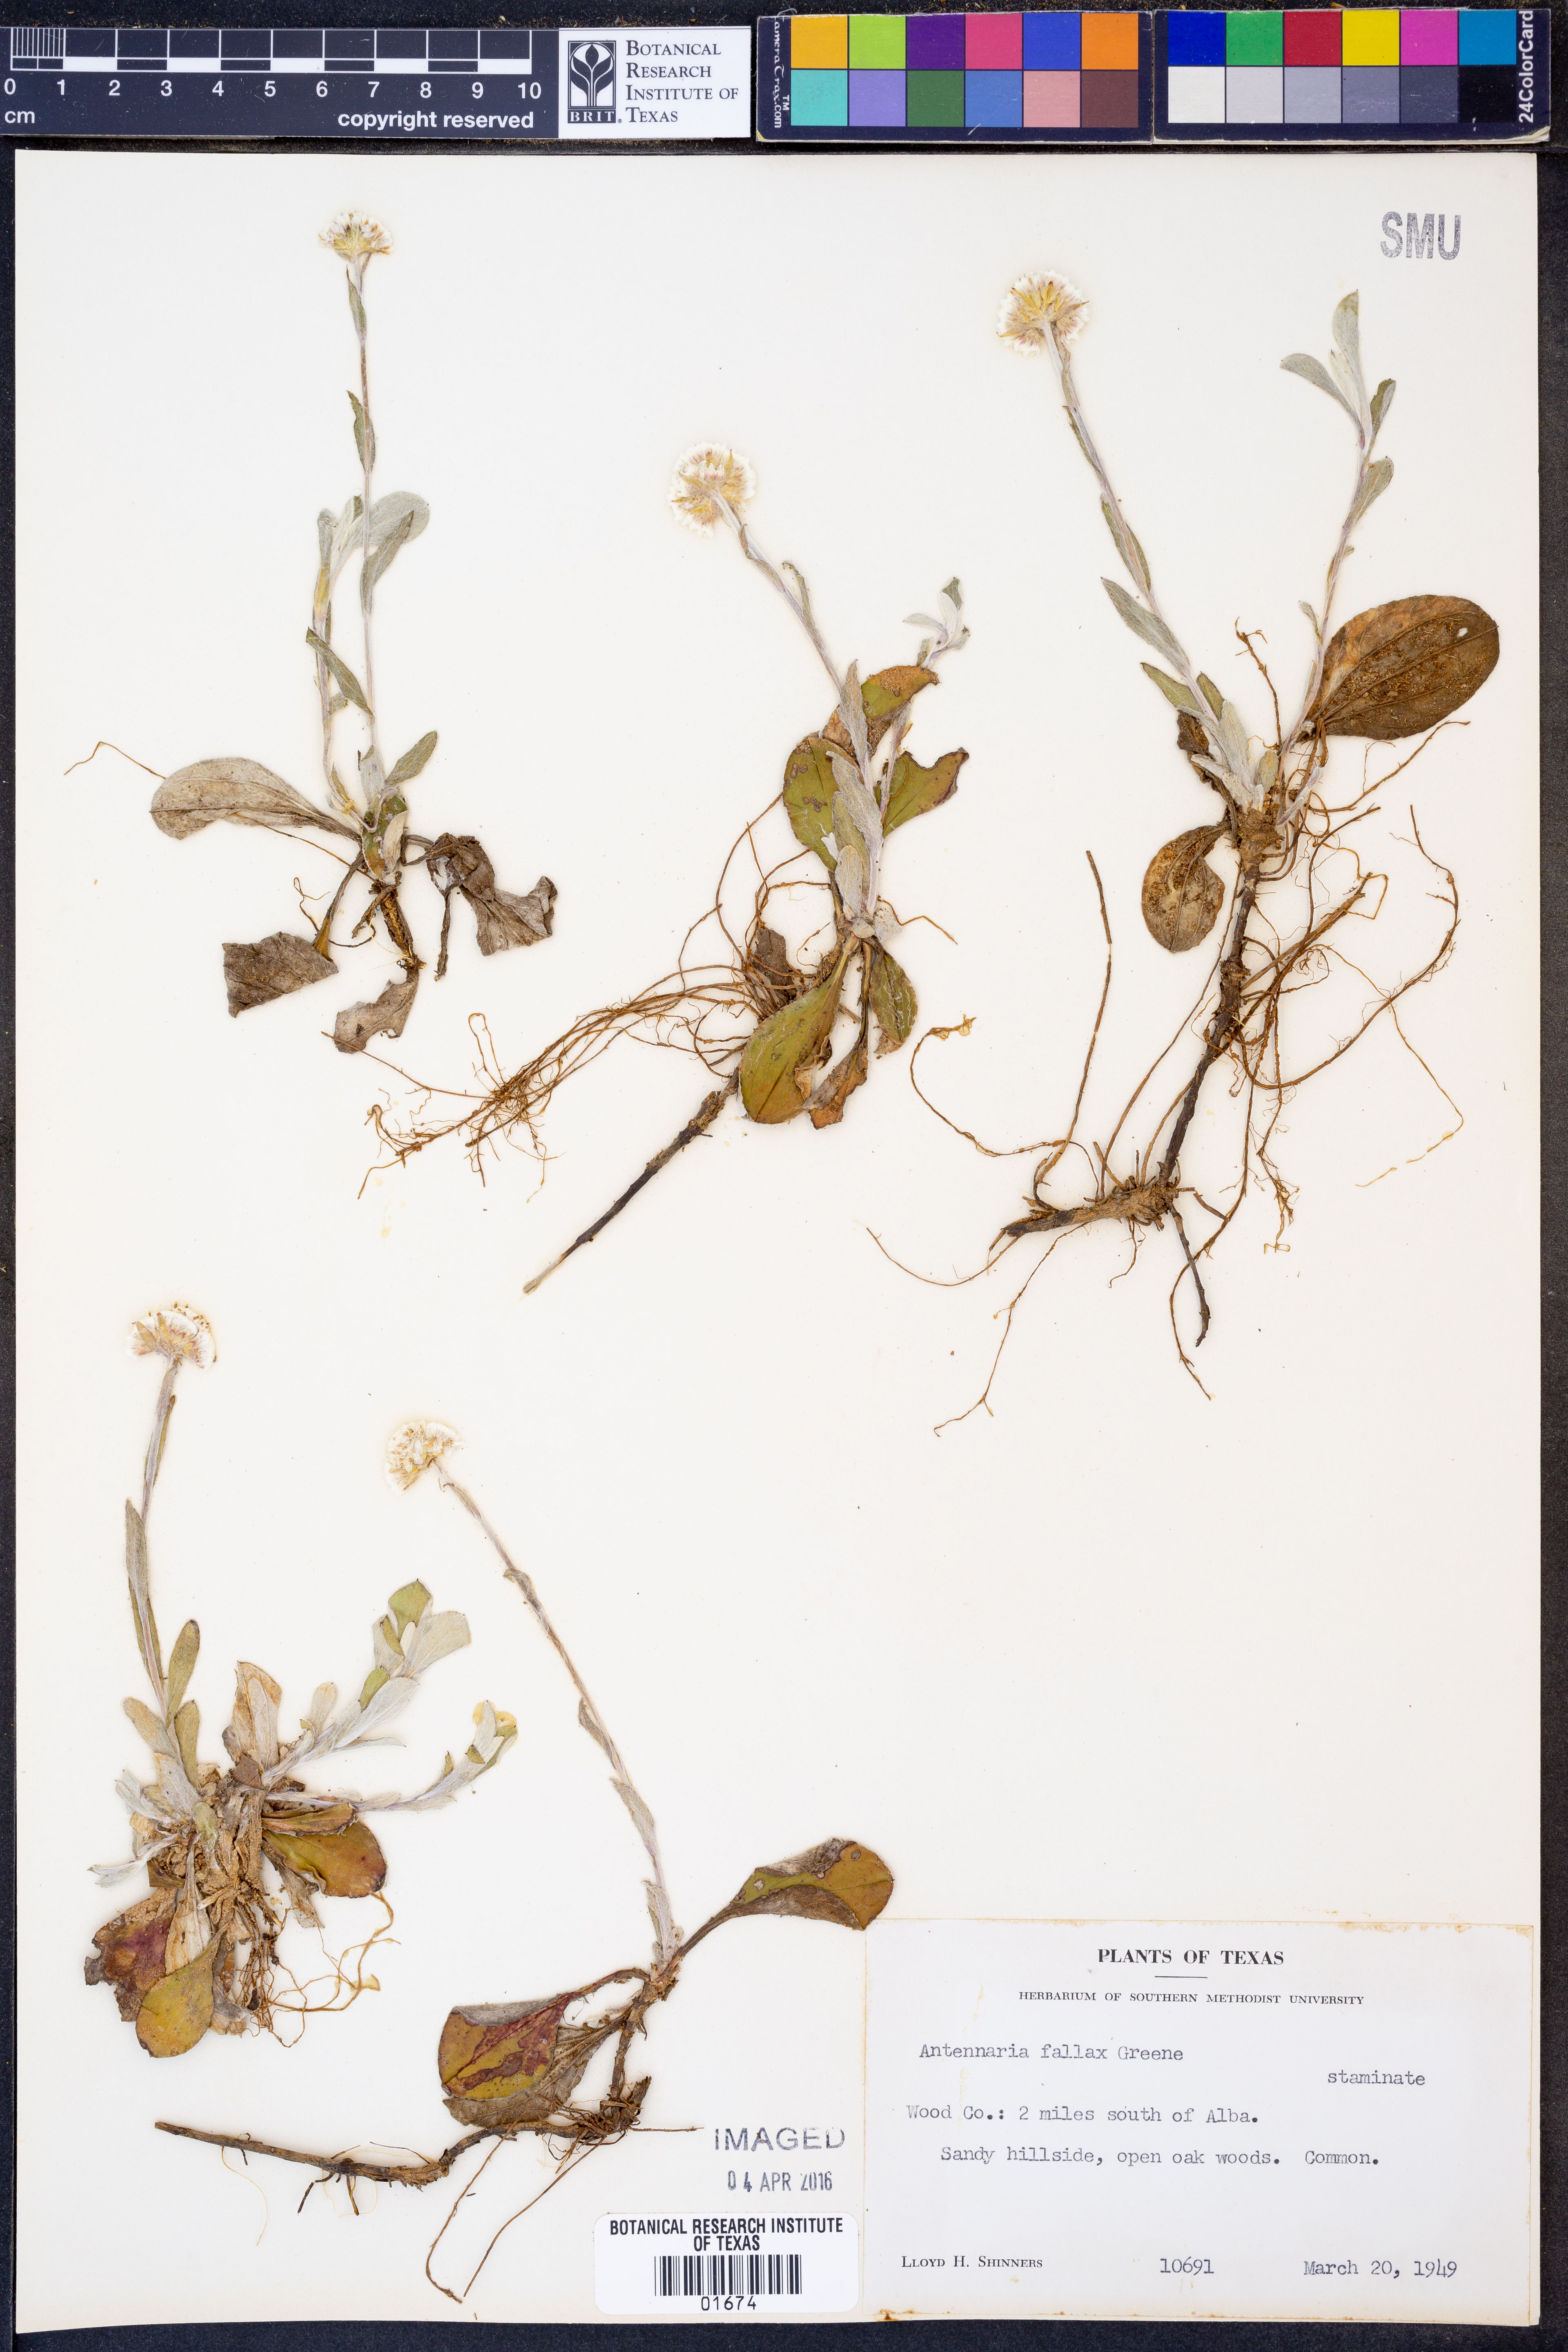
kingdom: Plantae
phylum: Tracheophyta
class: Magnoliopsida
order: Asterales
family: Asteraceae
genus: Antennaria
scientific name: Antennaria parlinii
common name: Parlin's pussytoes
